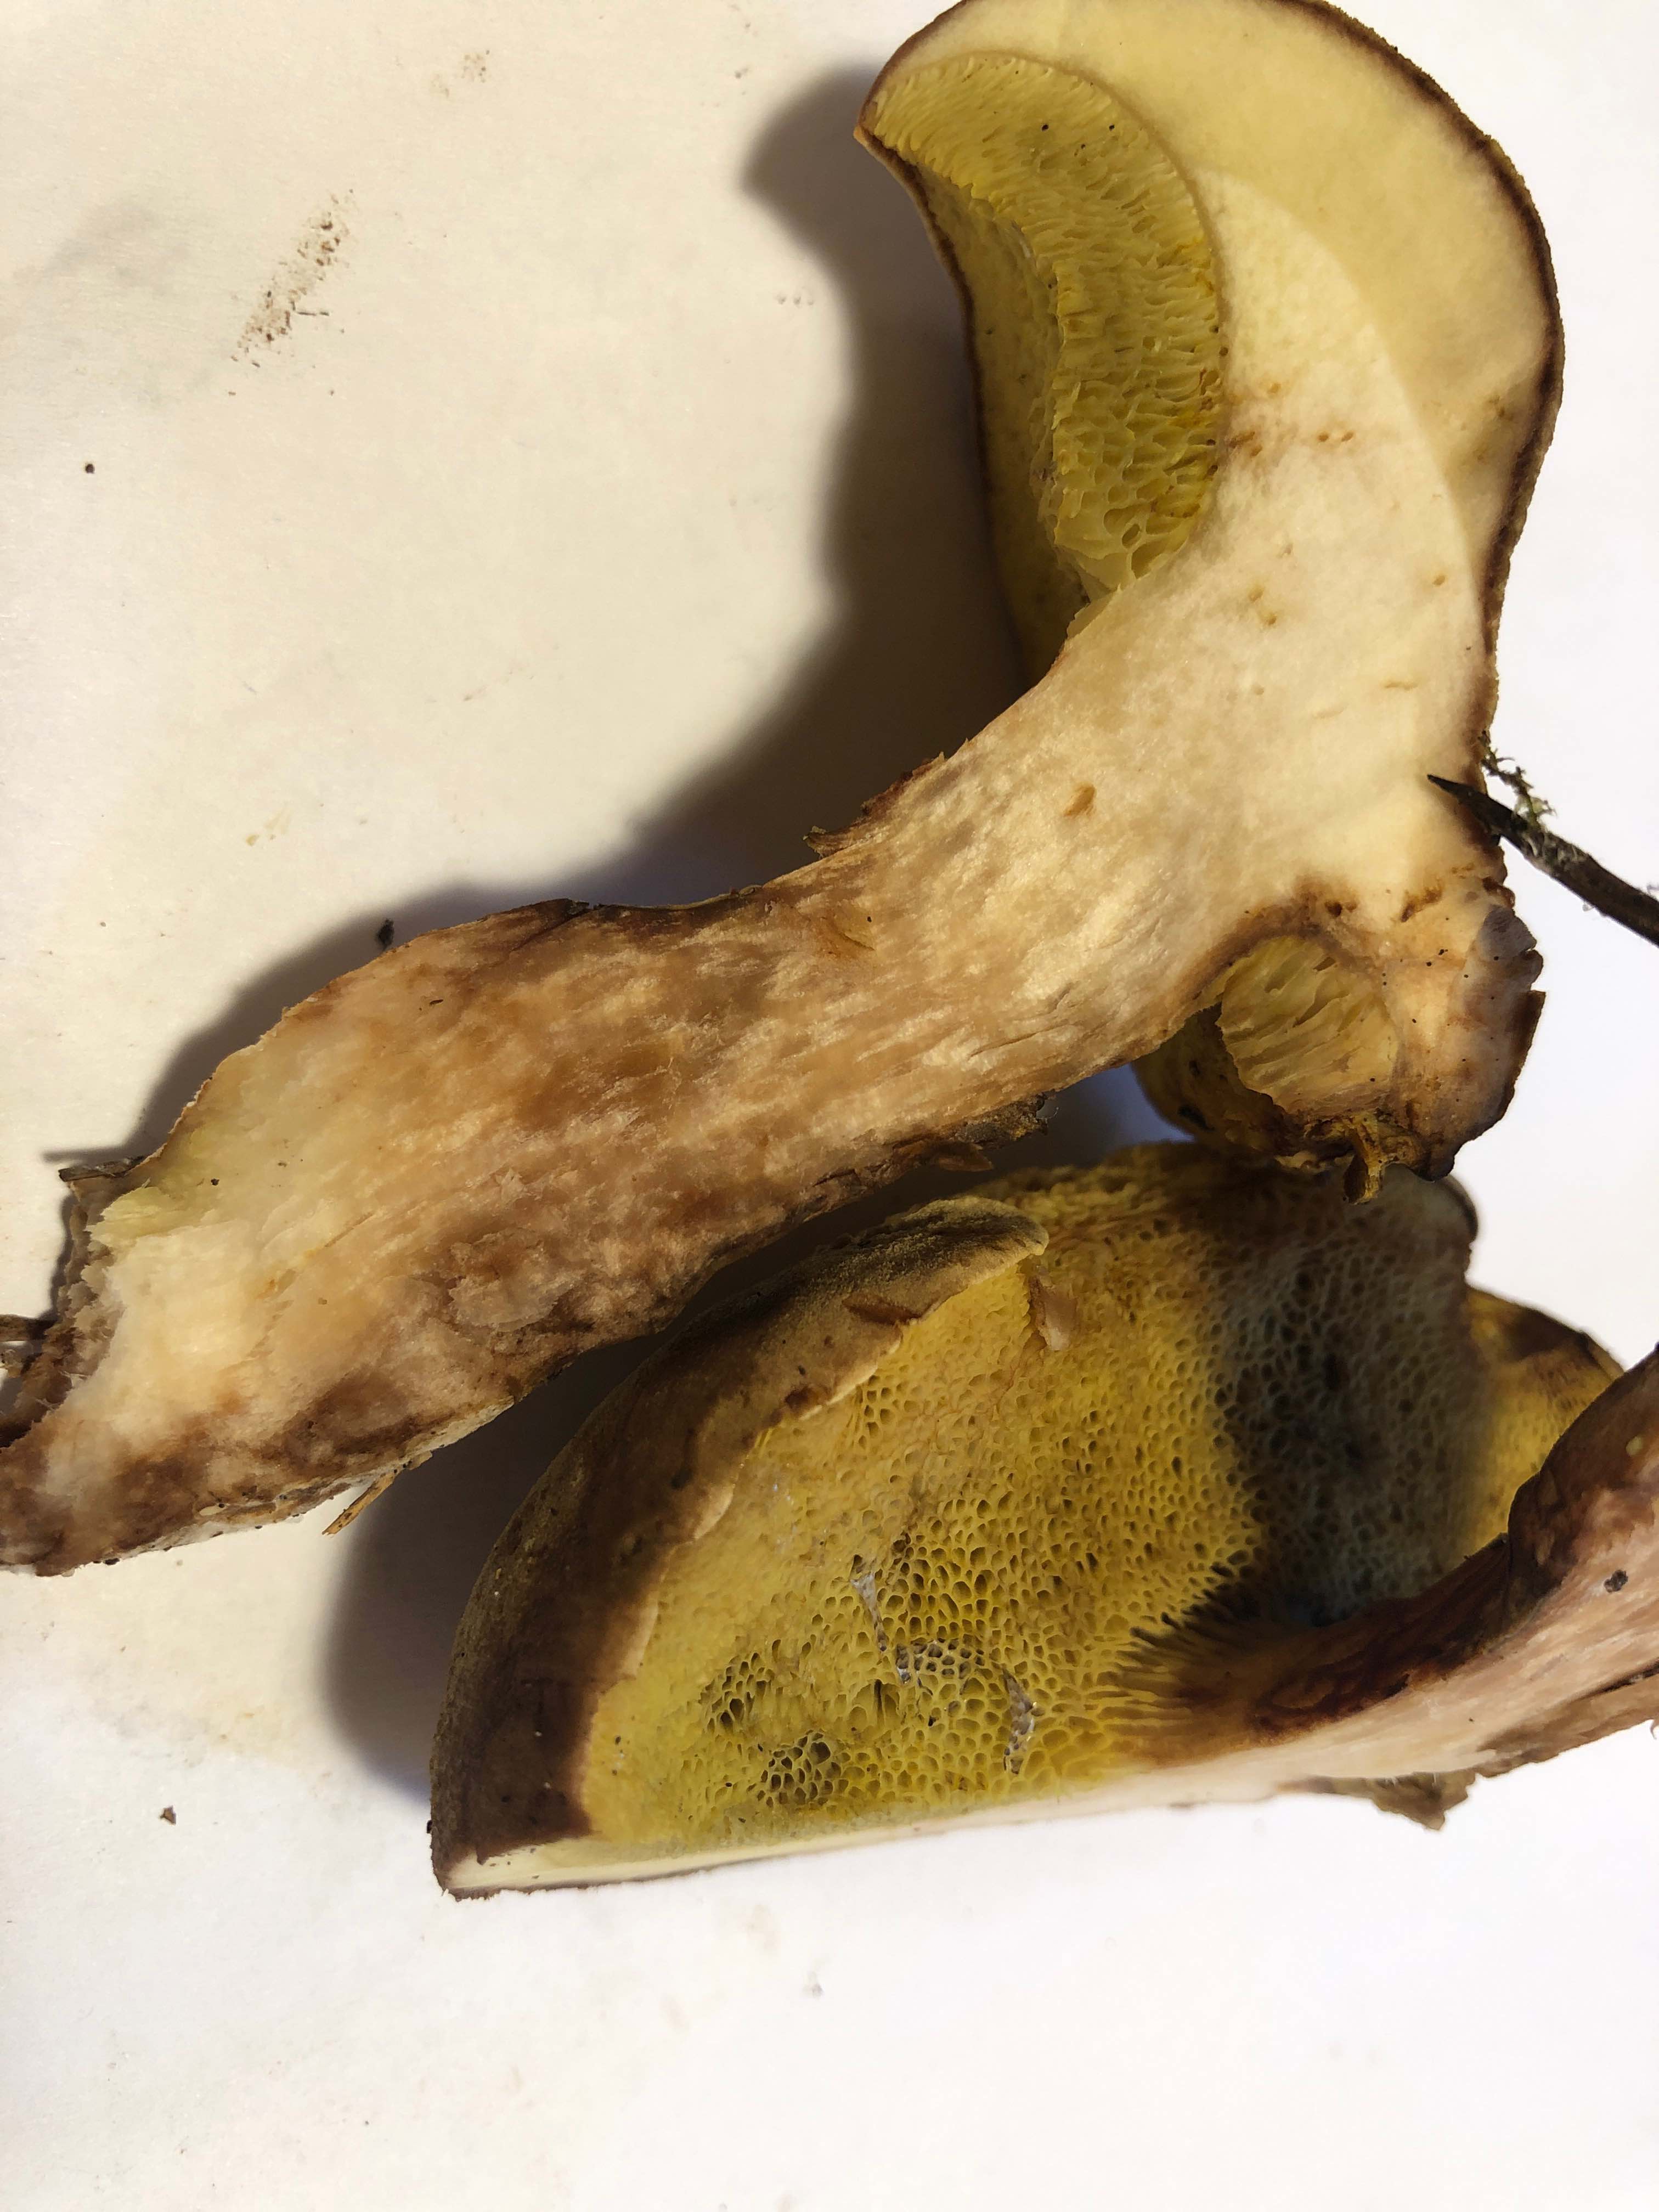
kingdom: Fungi
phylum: Basidiomycota
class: Agaricomycetes
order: Boletales
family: Boletaceae
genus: Xerocomus
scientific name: Xerocomus ferrugineus
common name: vaskeskinds-rørhat
